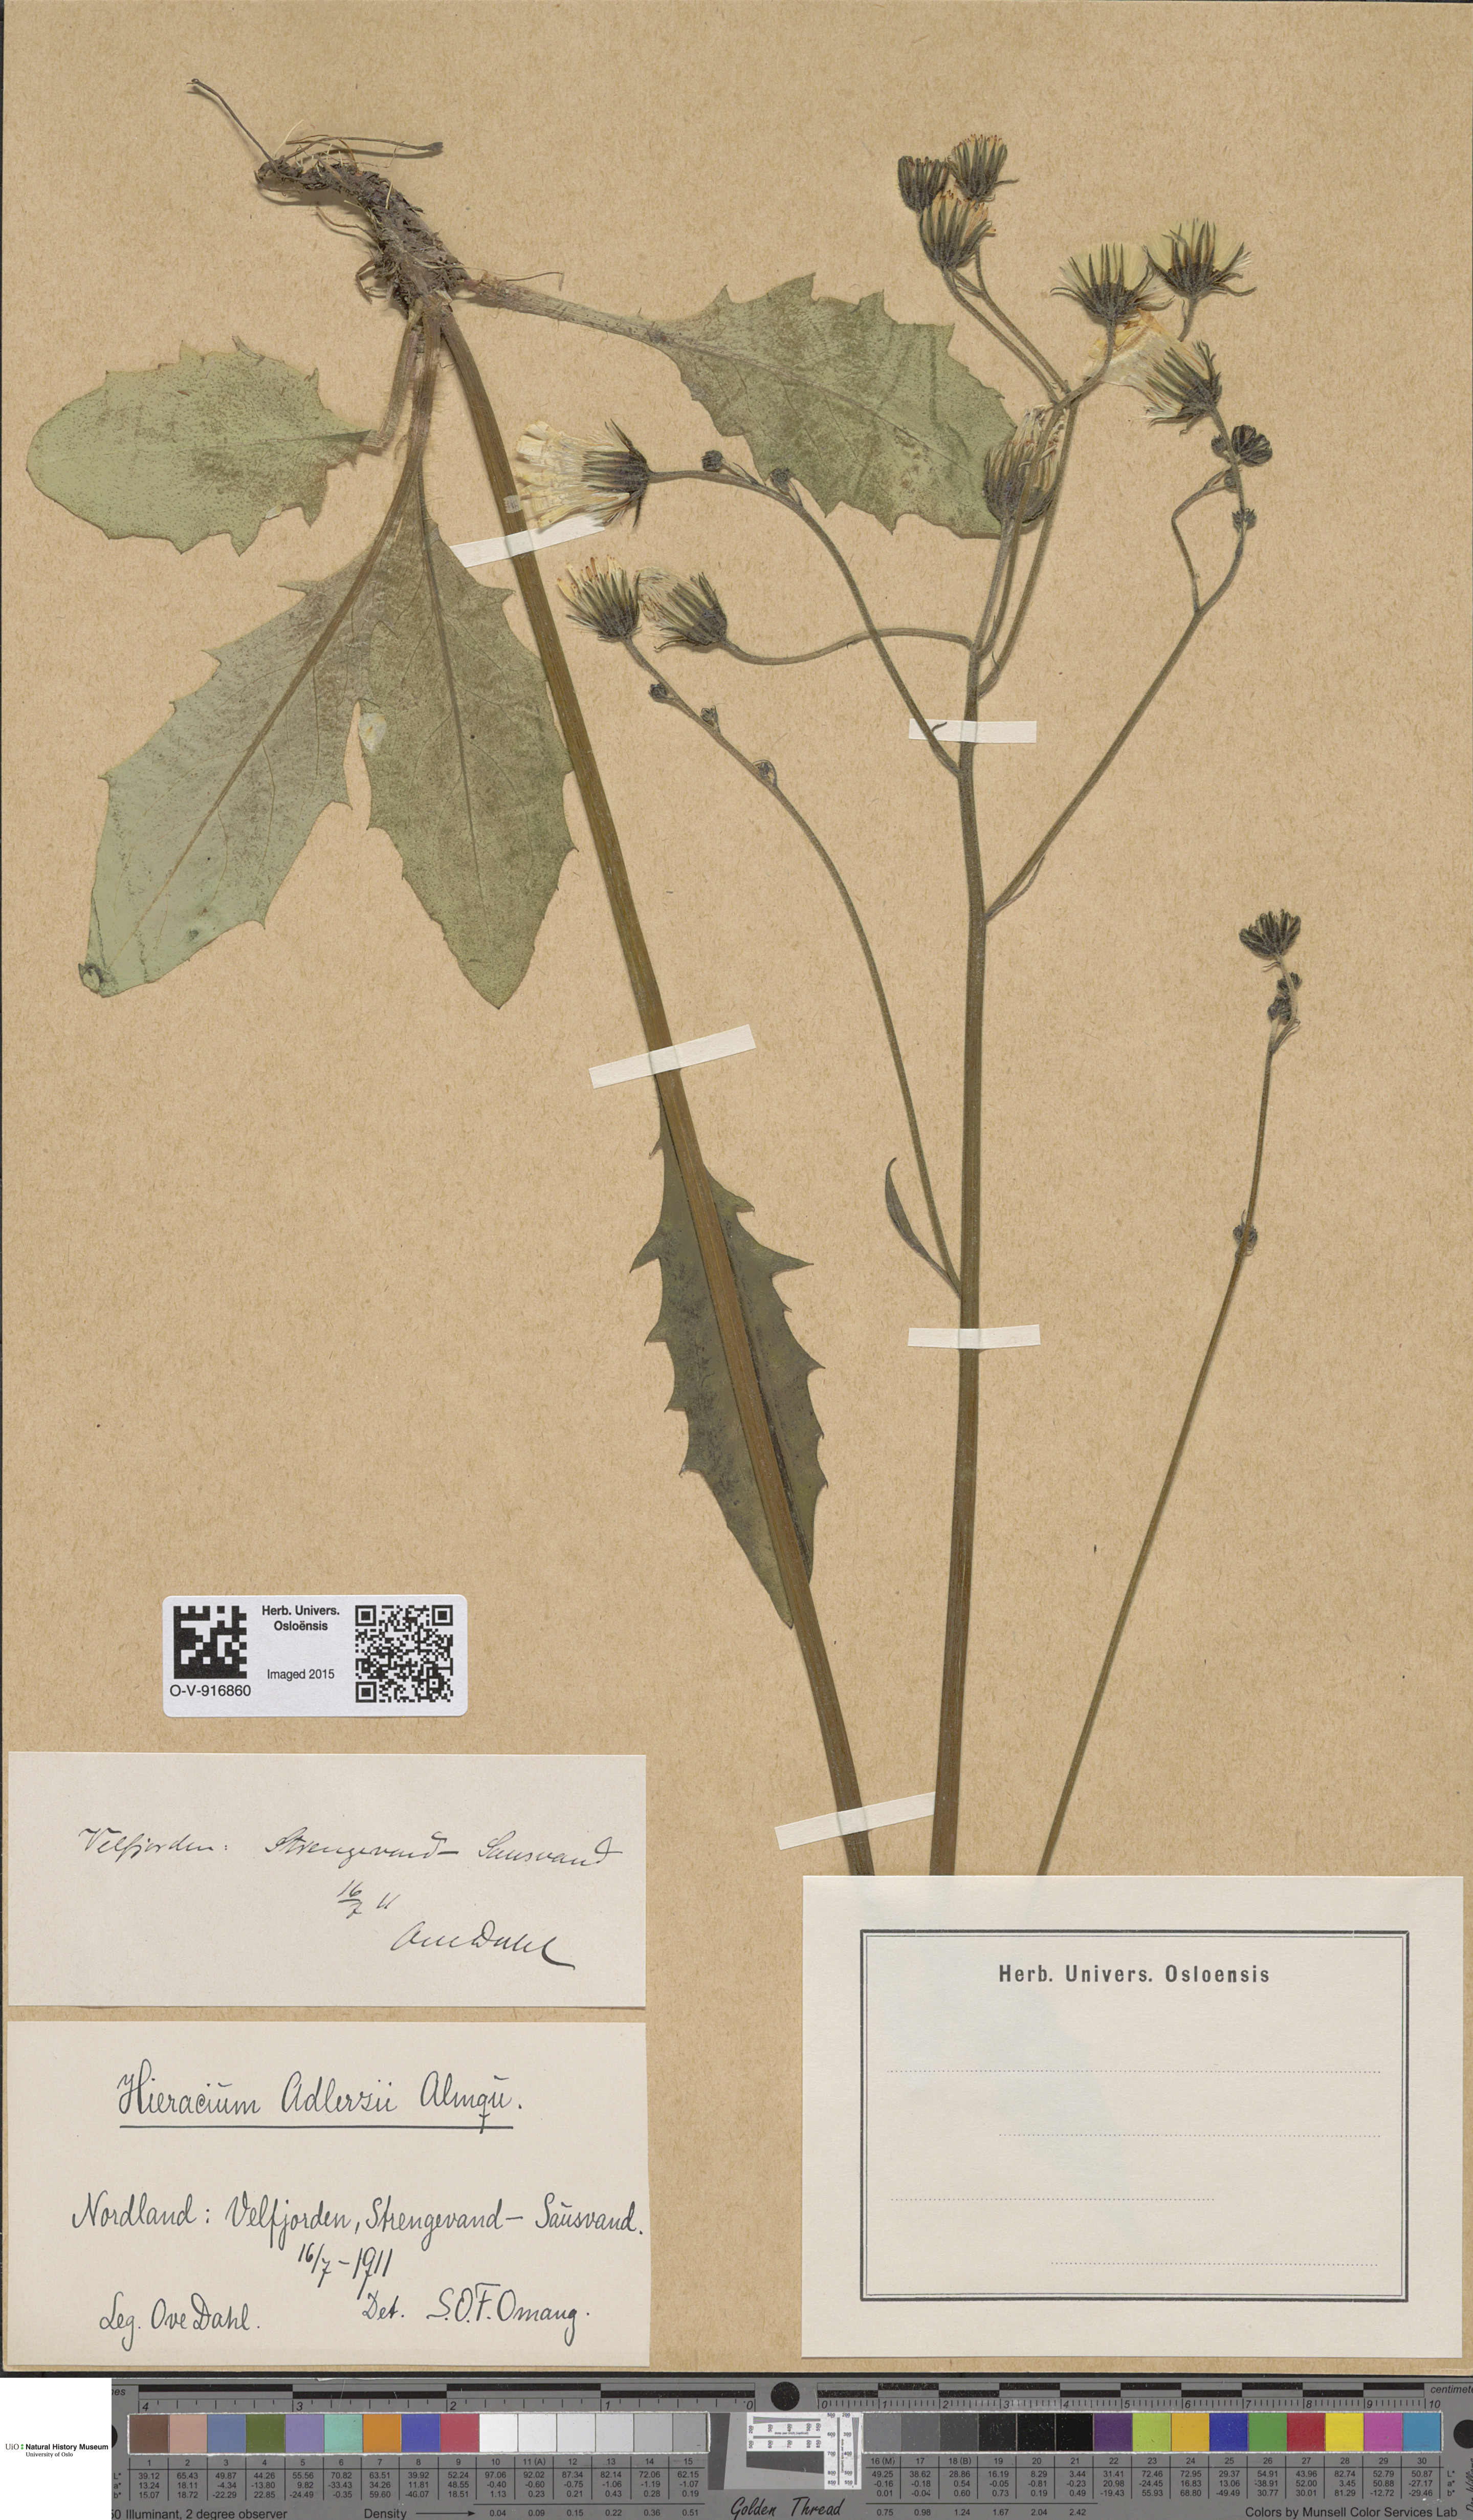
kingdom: Plantae
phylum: Tracheophyta
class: Magnoliopsida
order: Asterales
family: Asteraceae
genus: Hieracium
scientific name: Hieracium
